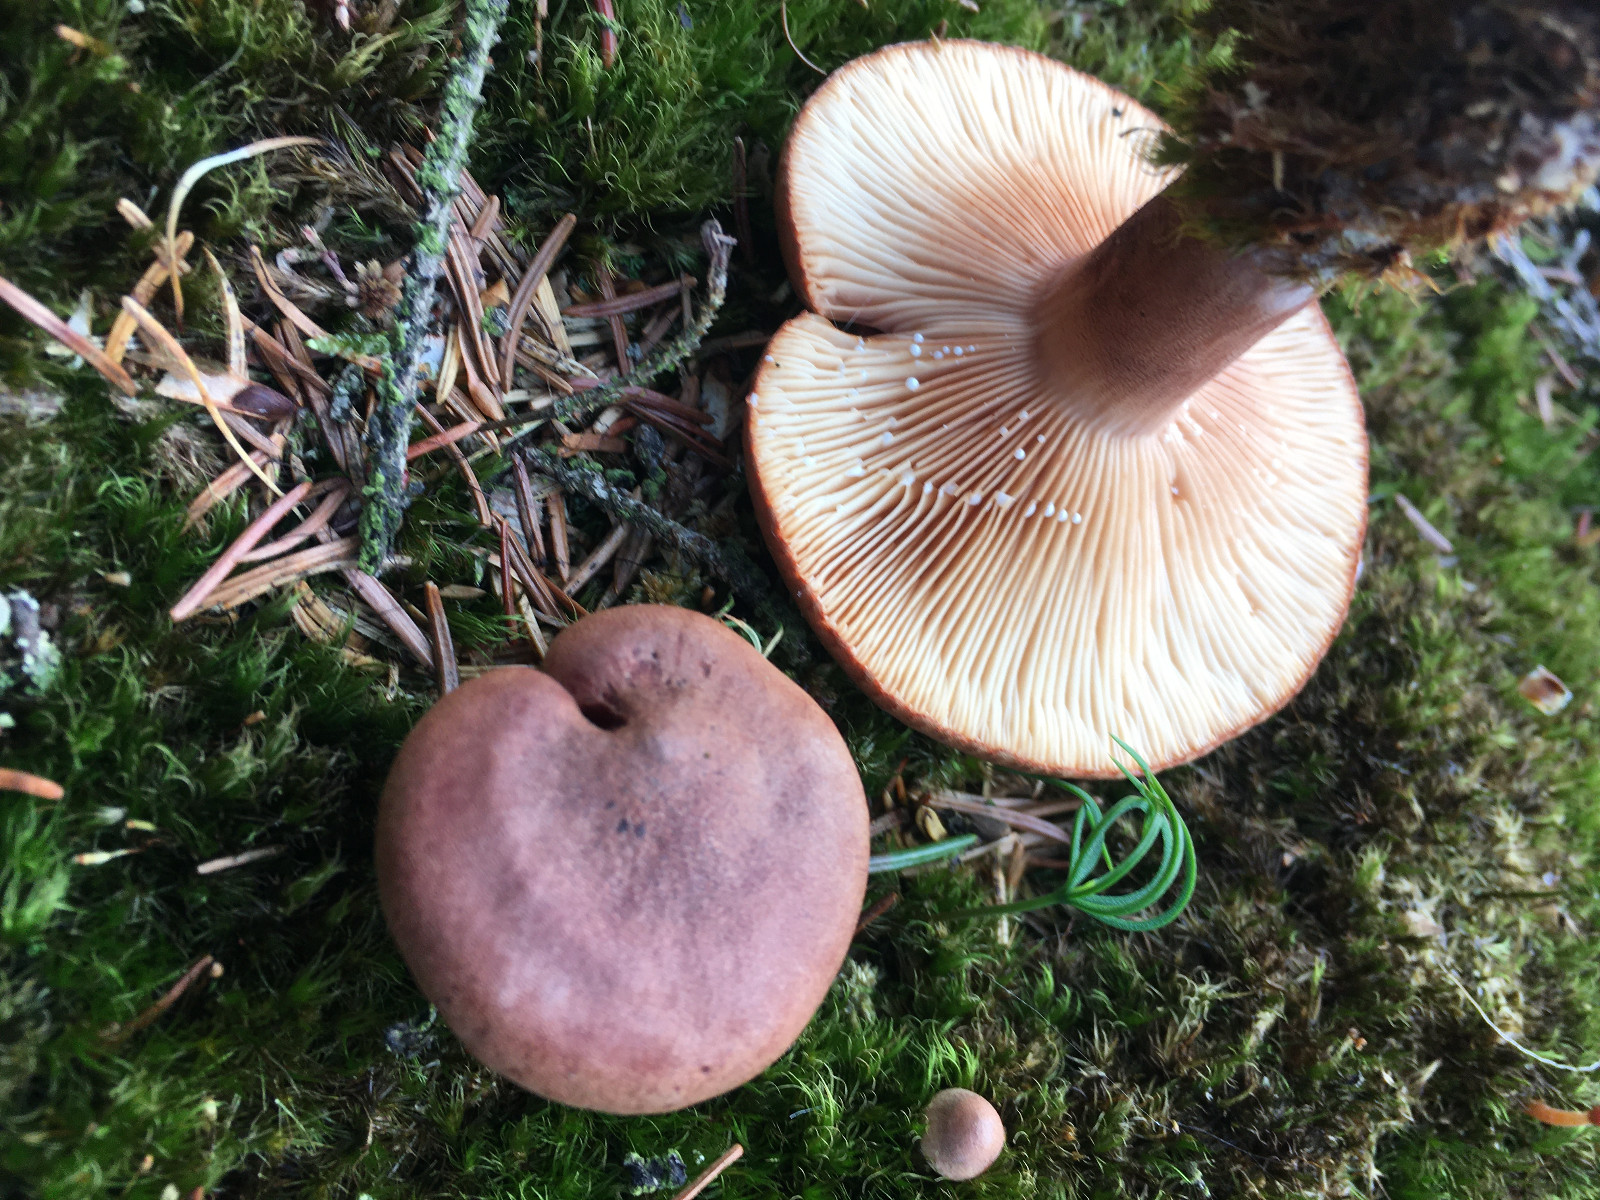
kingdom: Fungi
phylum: Basidiomycota
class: Agaricomycetes
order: Russulales
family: Russulaceae
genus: Lactarius
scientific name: Lactarius rufus
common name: rødbrun mælkehat
